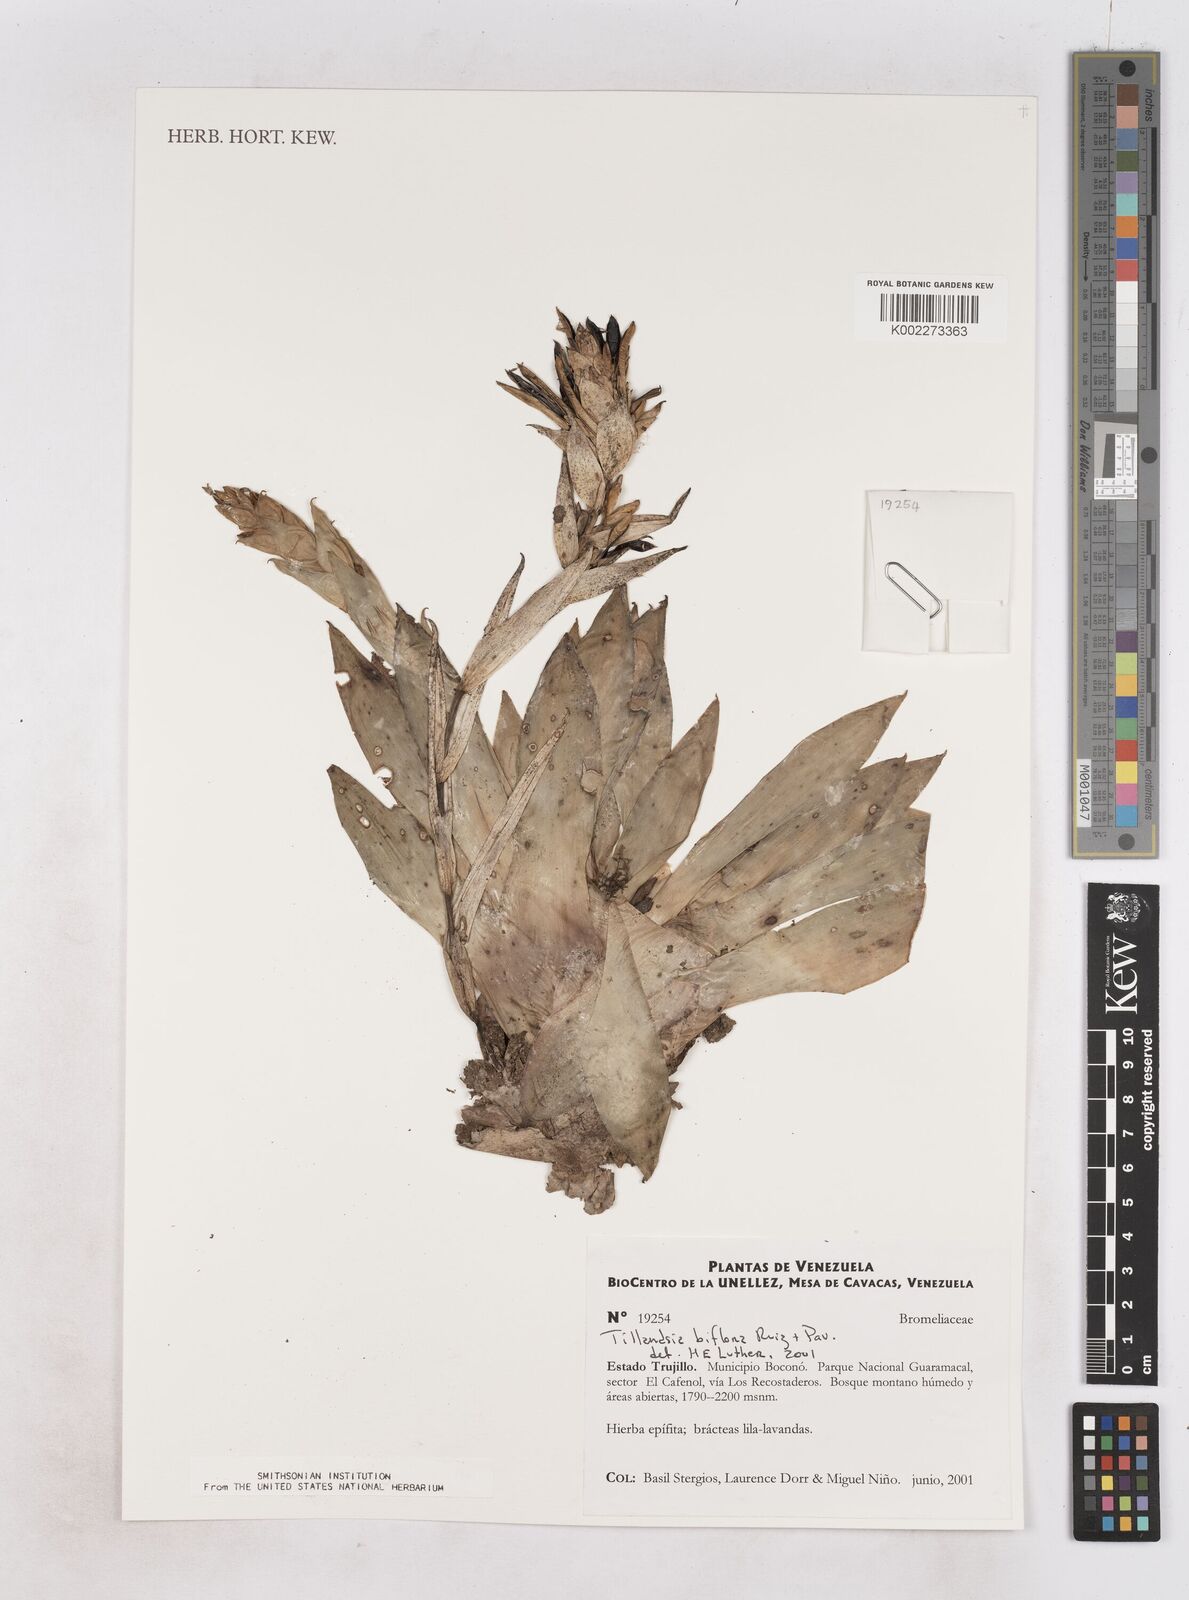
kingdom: Plantae
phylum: Tracheophyta
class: Liliopsida
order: Poales
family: Bromeliaceae
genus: Tillandsia
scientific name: Tillandsia biflora
